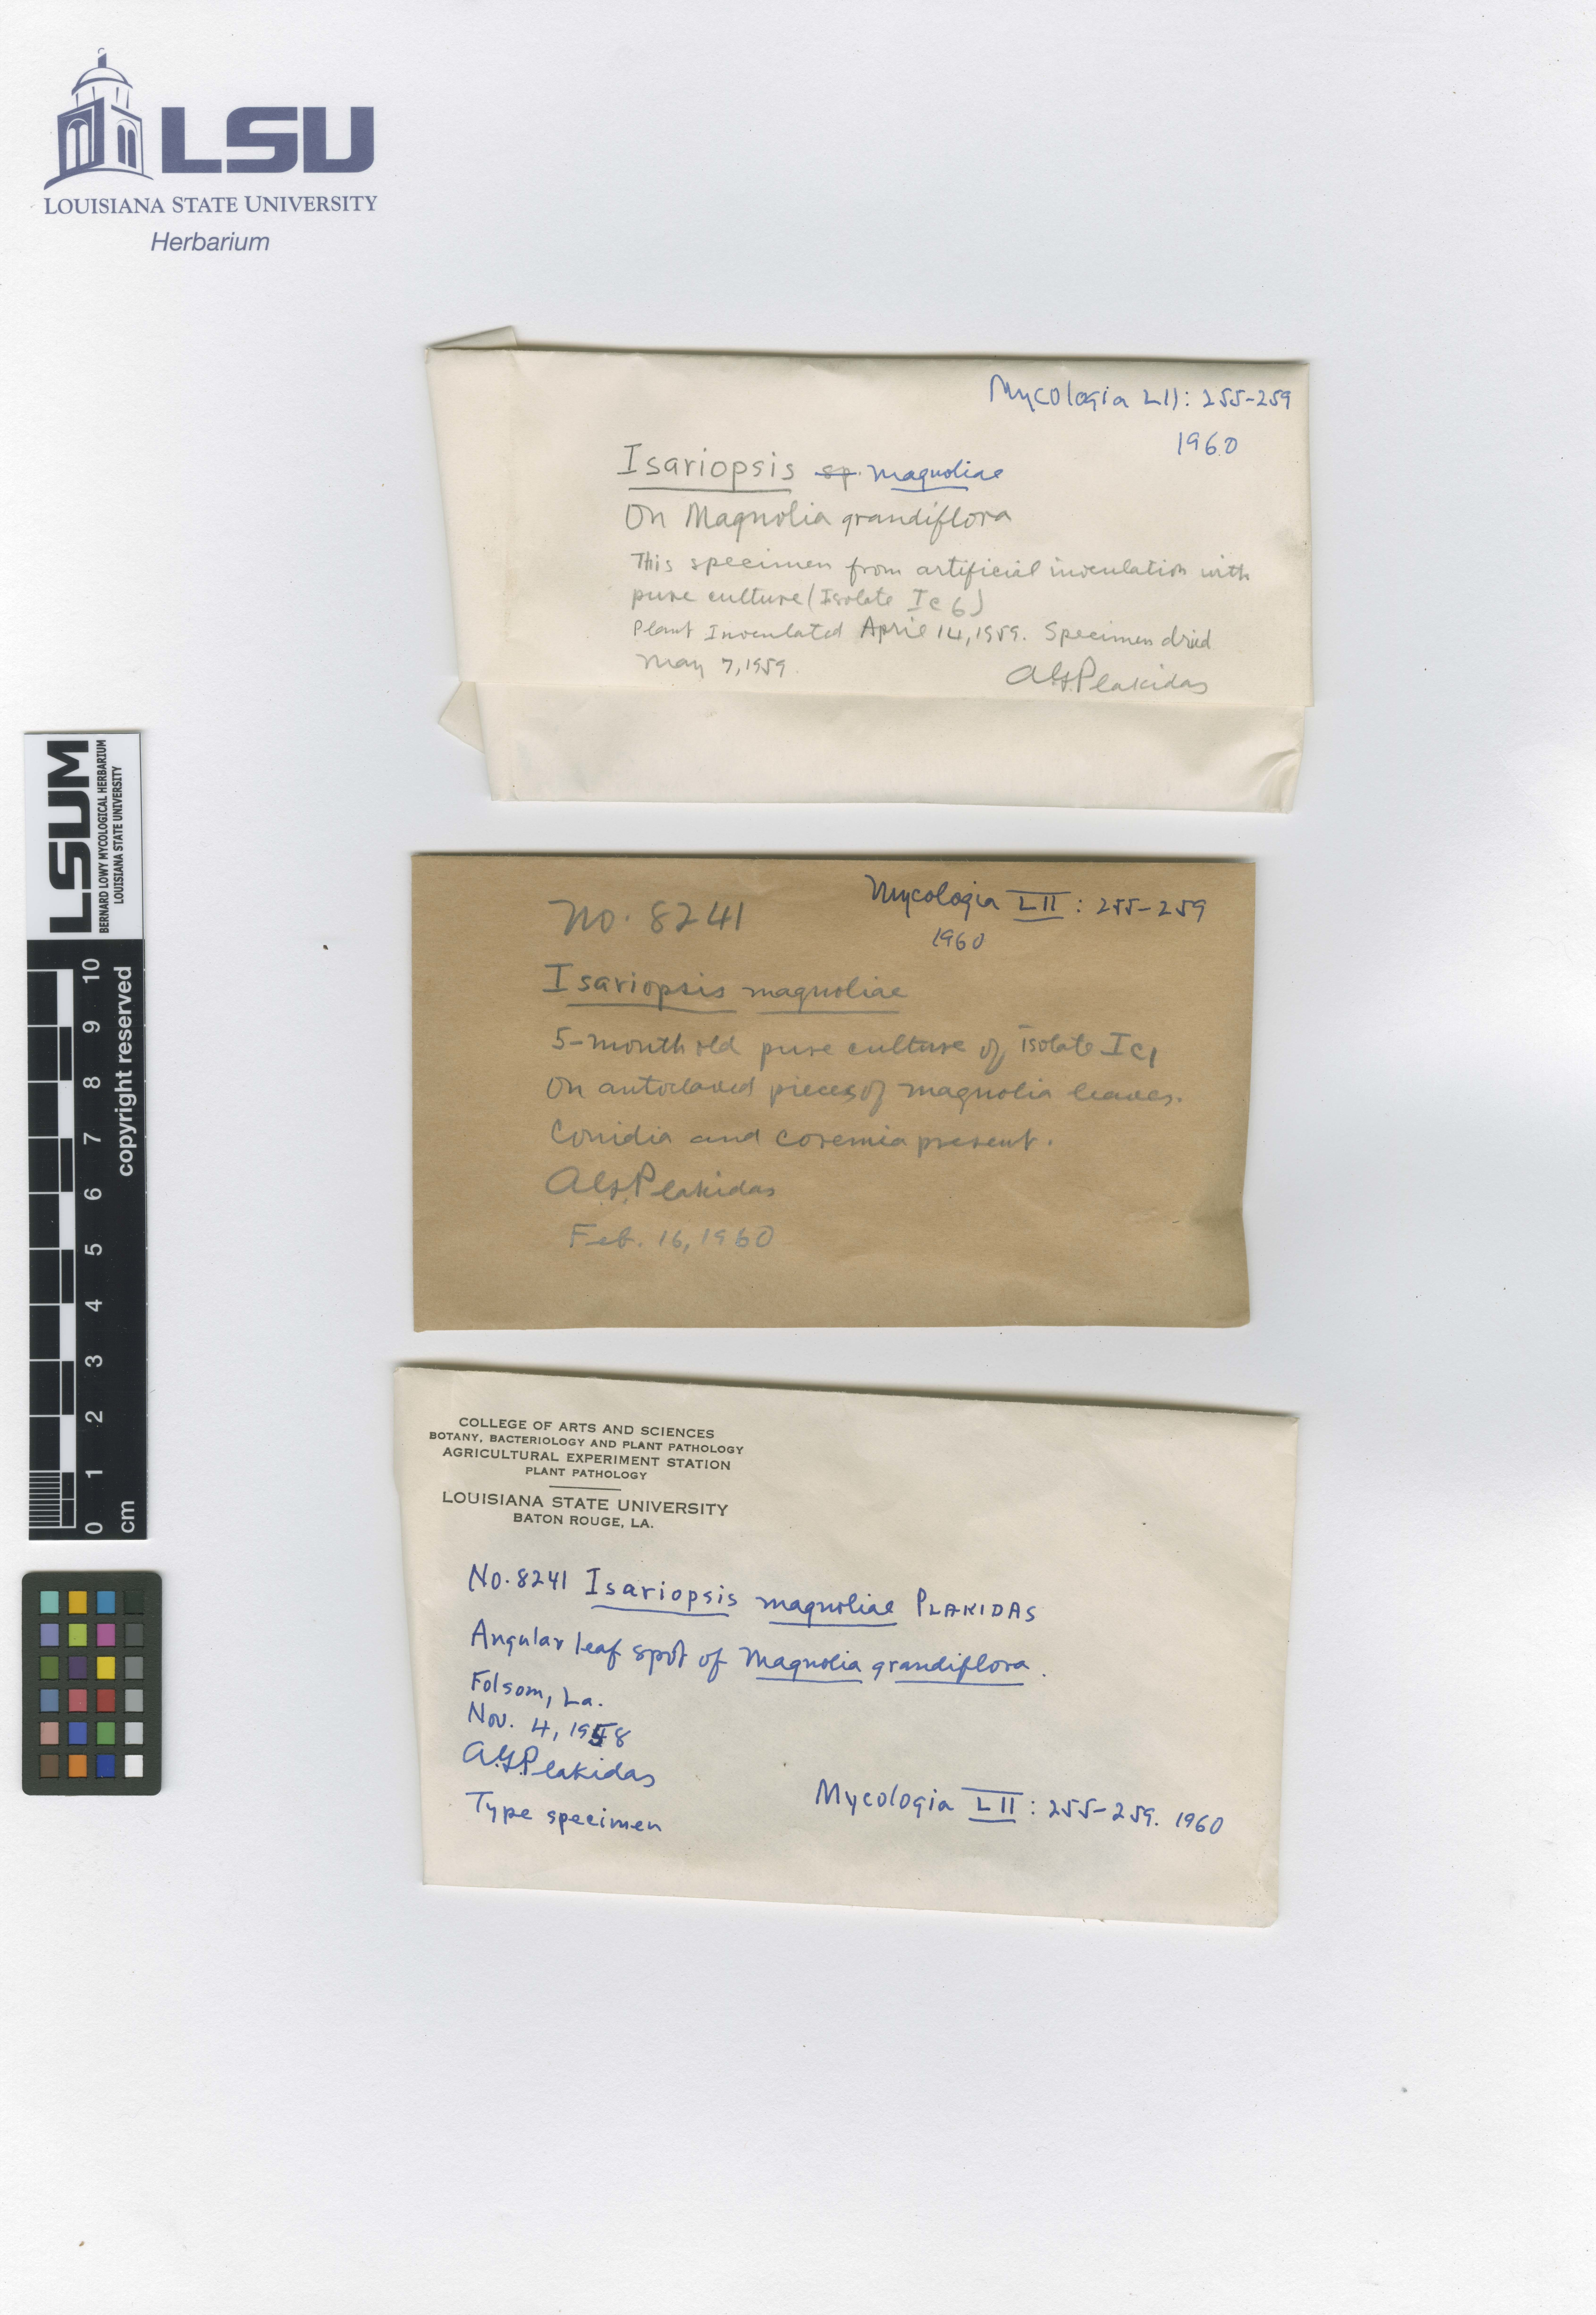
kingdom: Fungi
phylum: Ascomycota
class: Dothideomycetes
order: Mycosphaerellales
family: Mycosphaerellaceae
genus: Isariopsis
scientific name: Isariopsis
